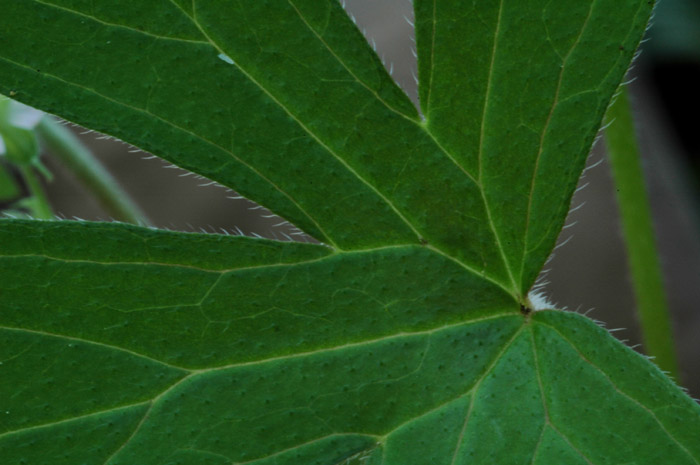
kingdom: Plantae
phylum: Tracheophyta
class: Magnoliopsida
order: Geraniales
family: Geraniaceae
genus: Geranium
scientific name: Geranium solanderi
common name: Solander's geranium
